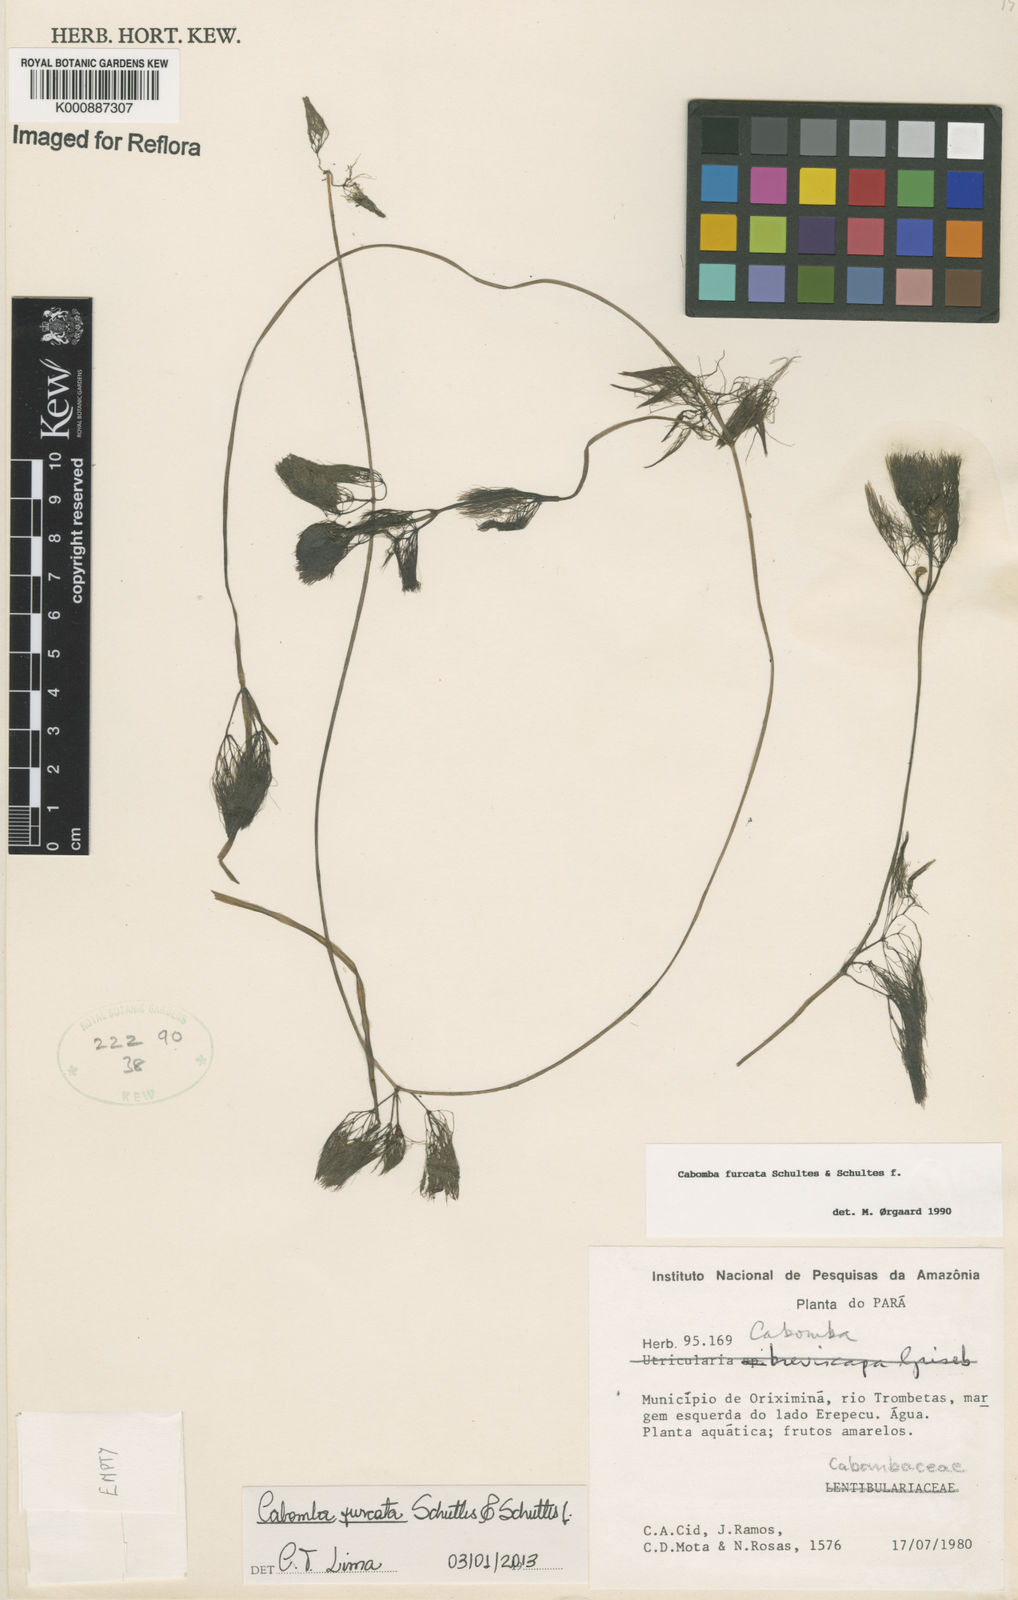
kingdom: Plantae
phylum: Tracheophyta
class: Magnoliopsida
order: Nymphaeales
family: Cabombaceae
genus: Cabomba
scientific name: Cabomba furcata
